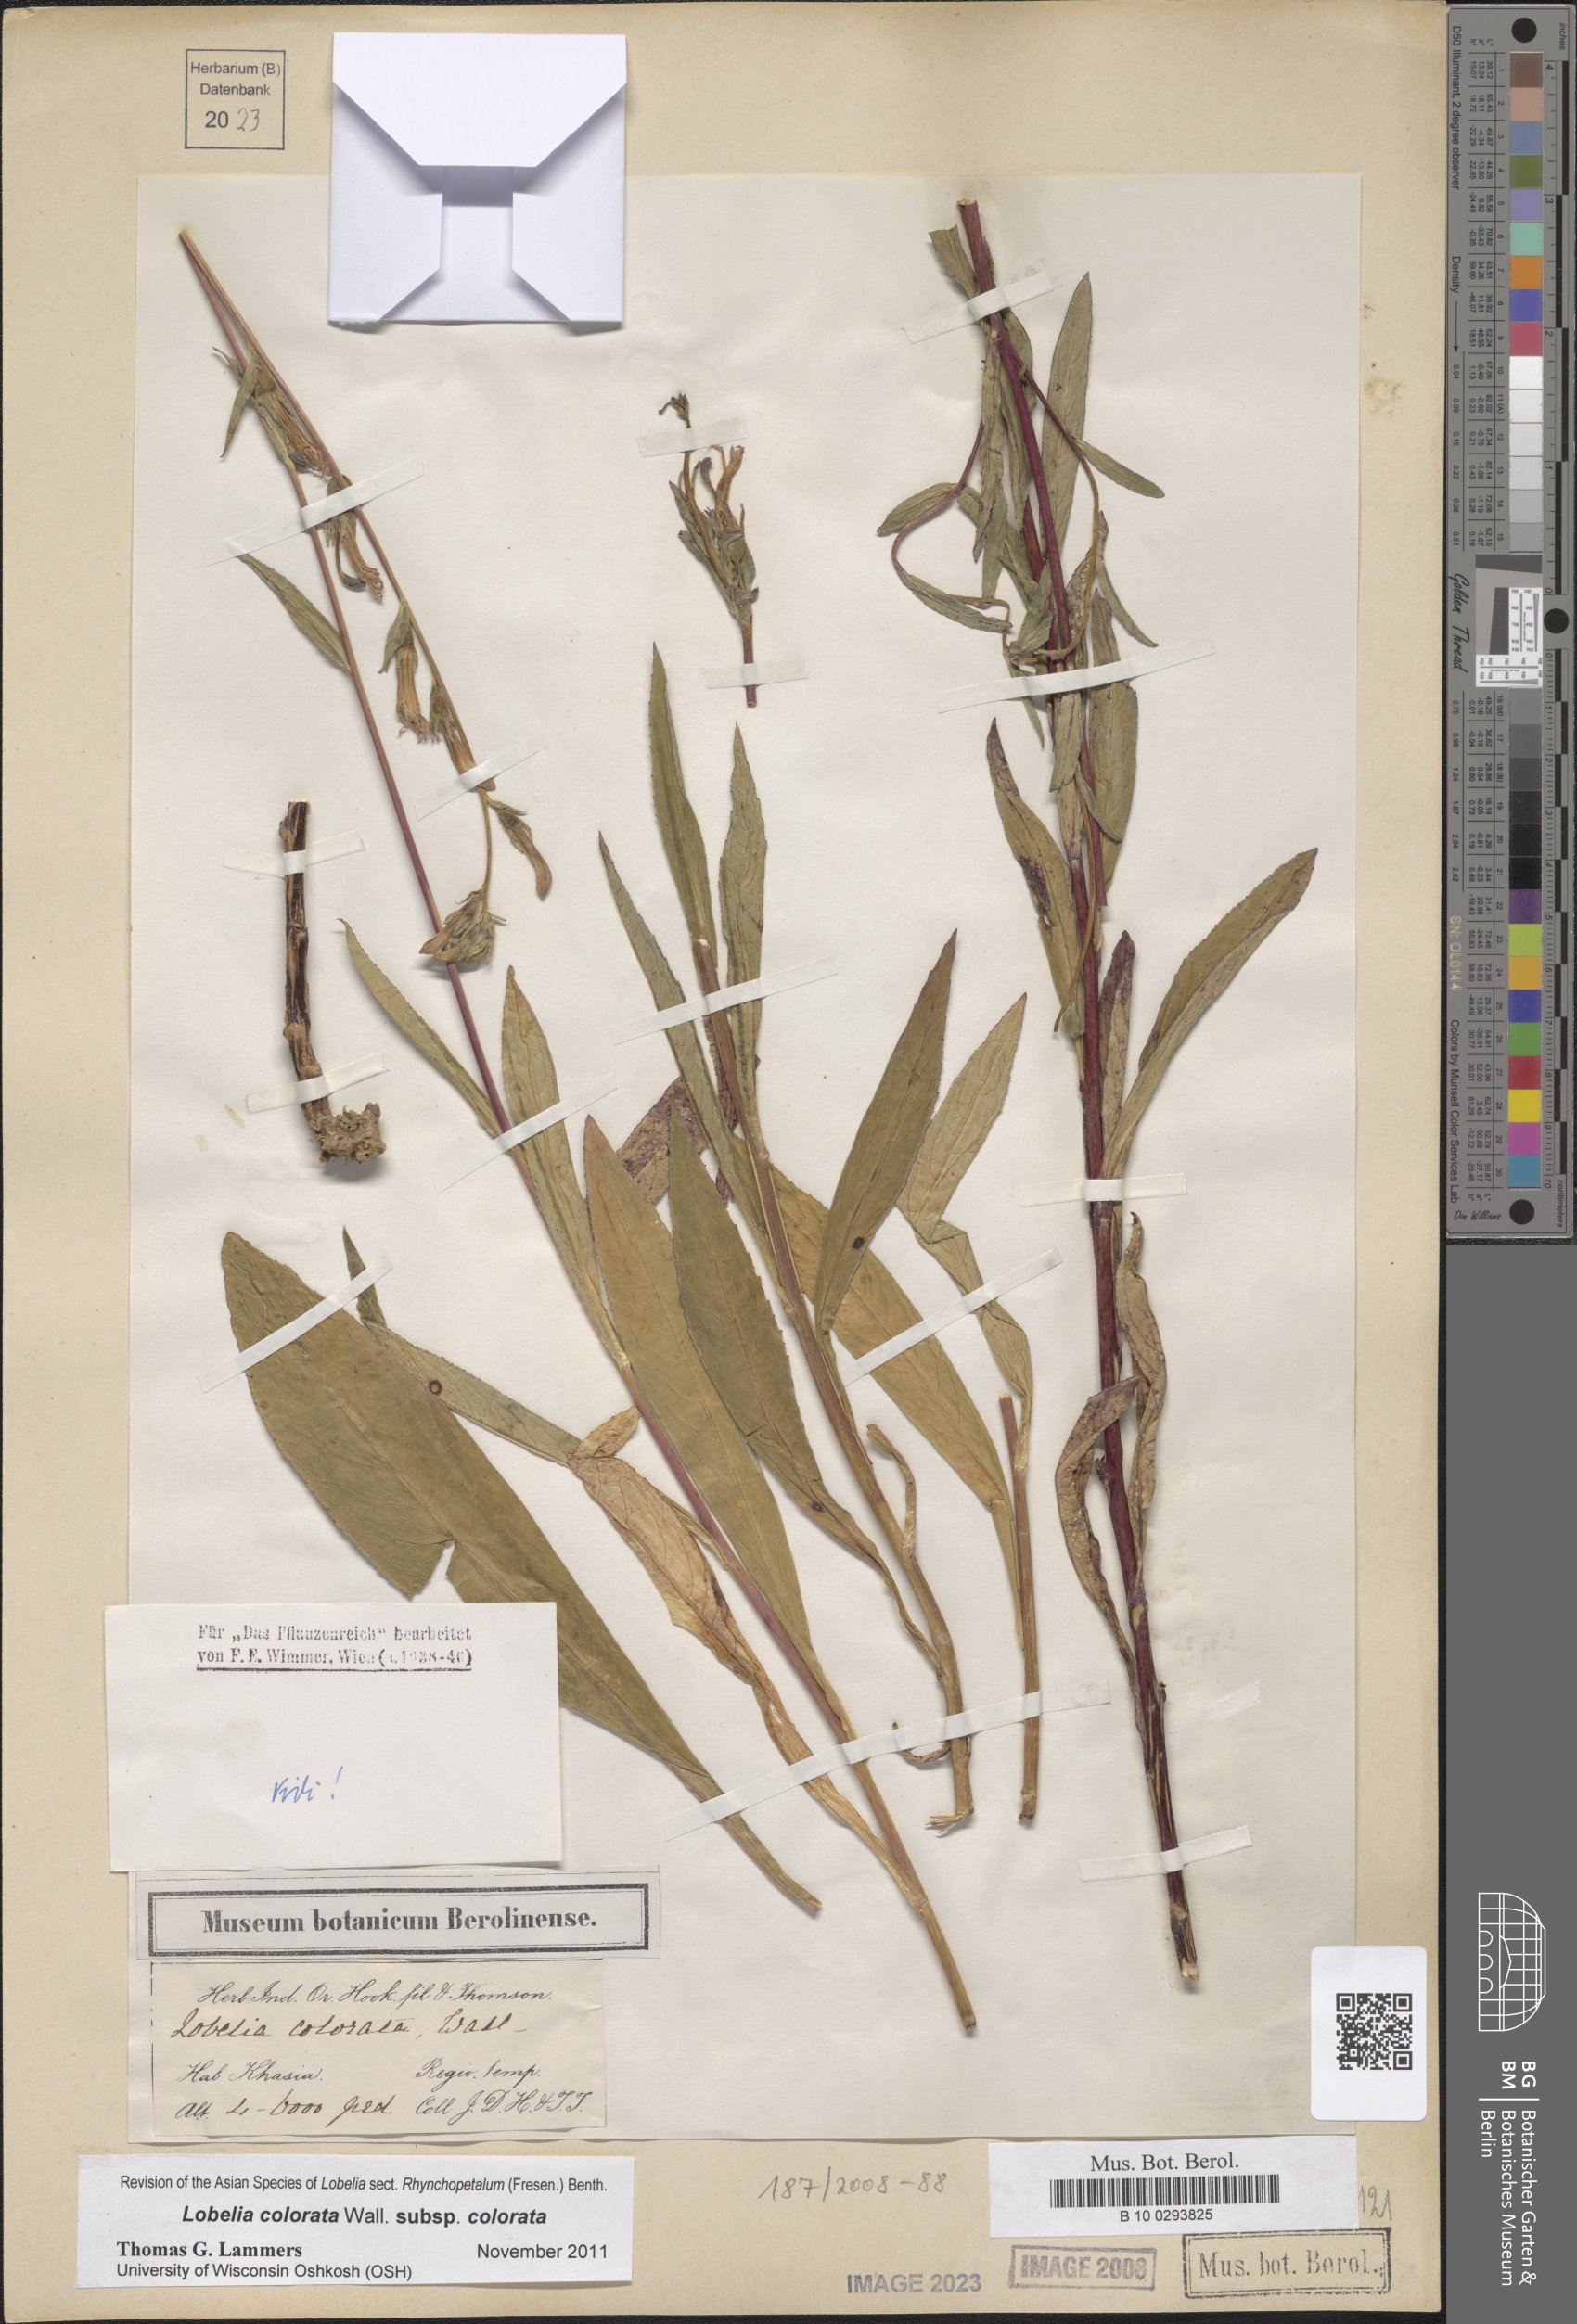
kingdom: Plantae
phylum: Tracheophyta
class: Magnoliopsida
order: Asterales
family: Campanulaceae
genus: Lobelia
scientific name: Lobelia
